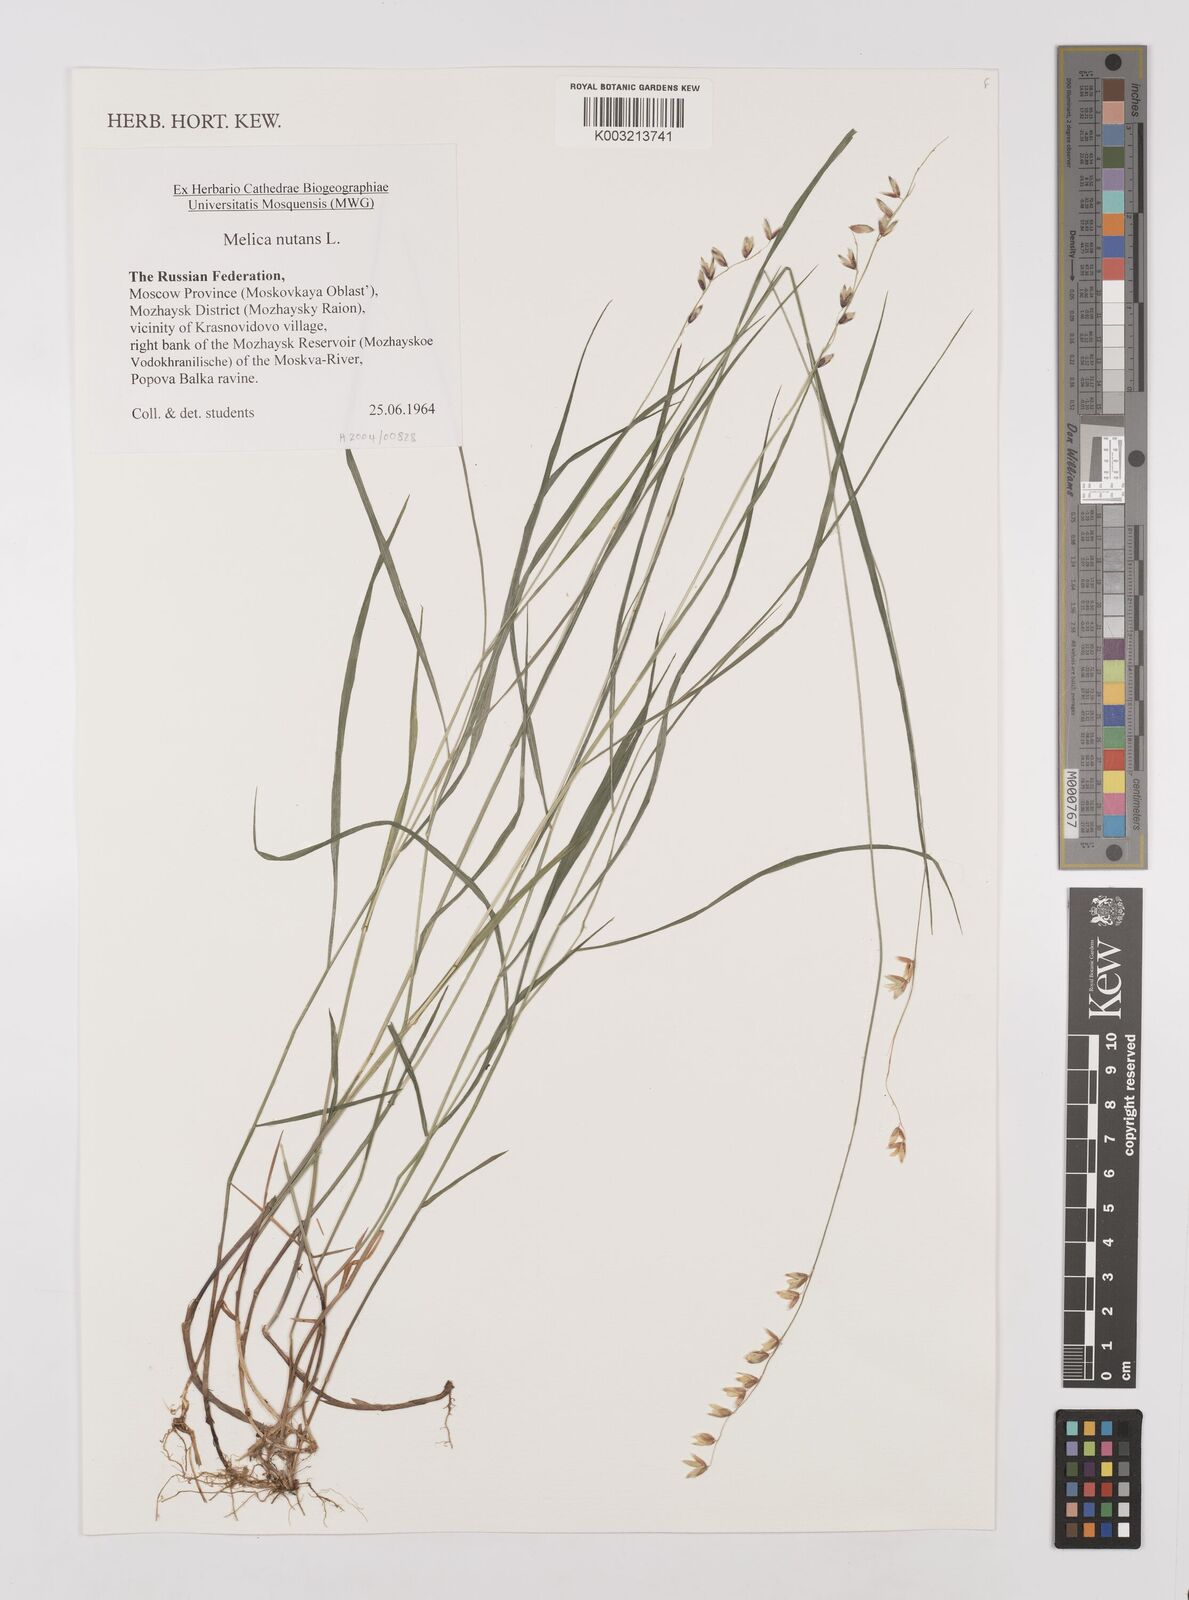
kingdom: Plantae
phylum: Tracheophyta
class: Liliopsida
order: Poales
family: Poaceae
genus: Melica
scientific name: Melica
